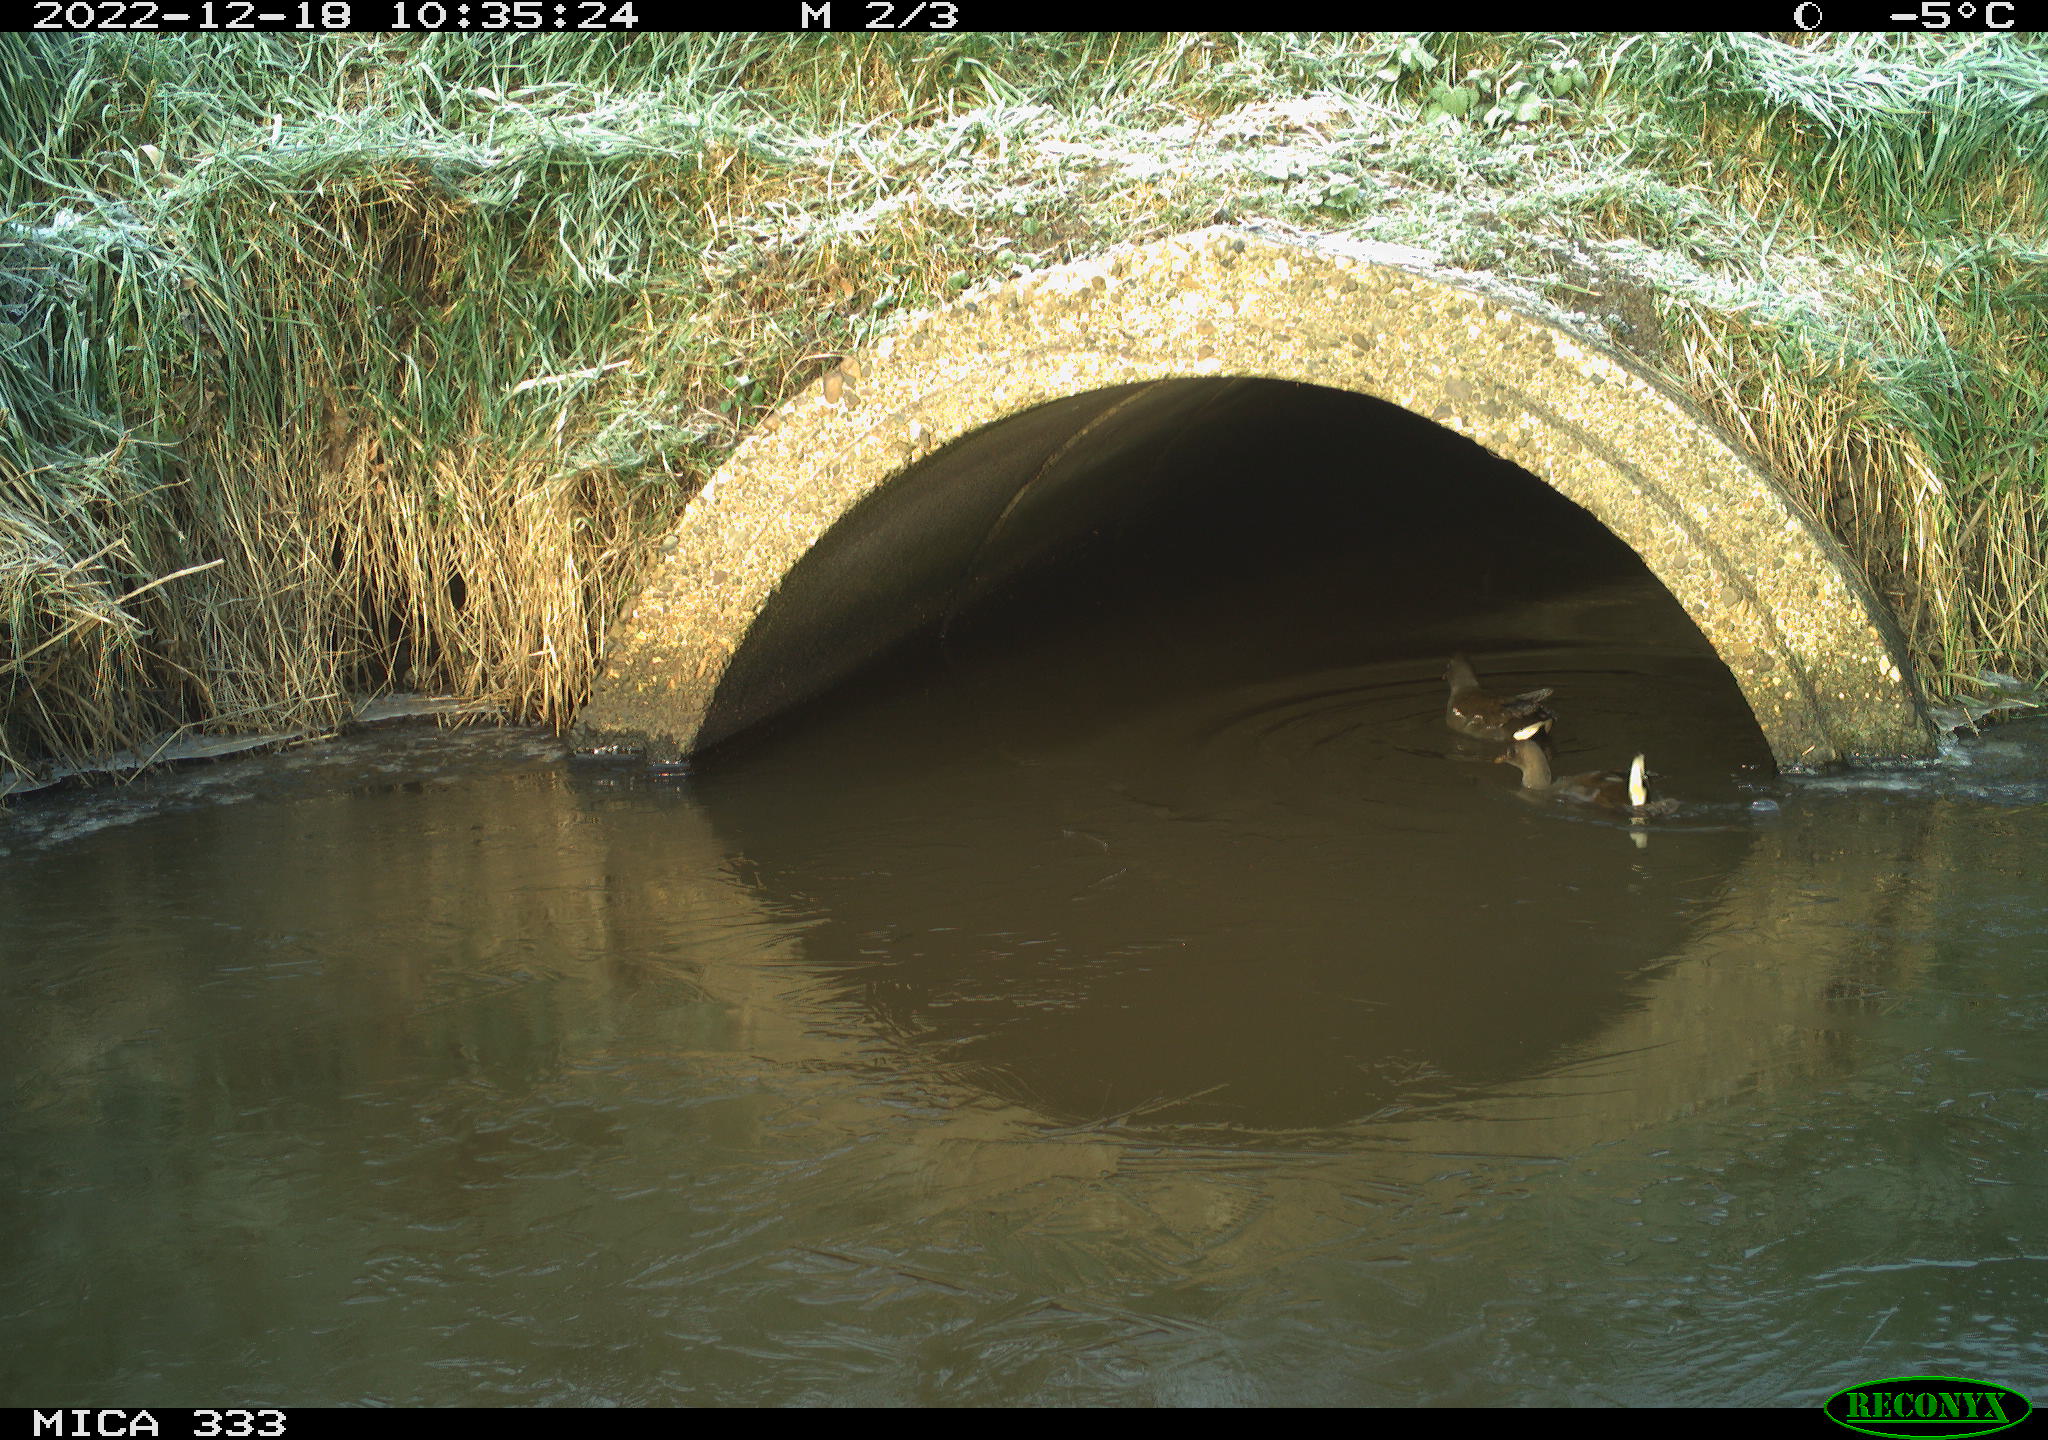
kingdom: Animalia
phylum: Chordata
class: Aves
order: Gruiformes
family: Rallidae
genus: Gallinula
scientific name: Gallinula chloropus
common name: Common moorhen
